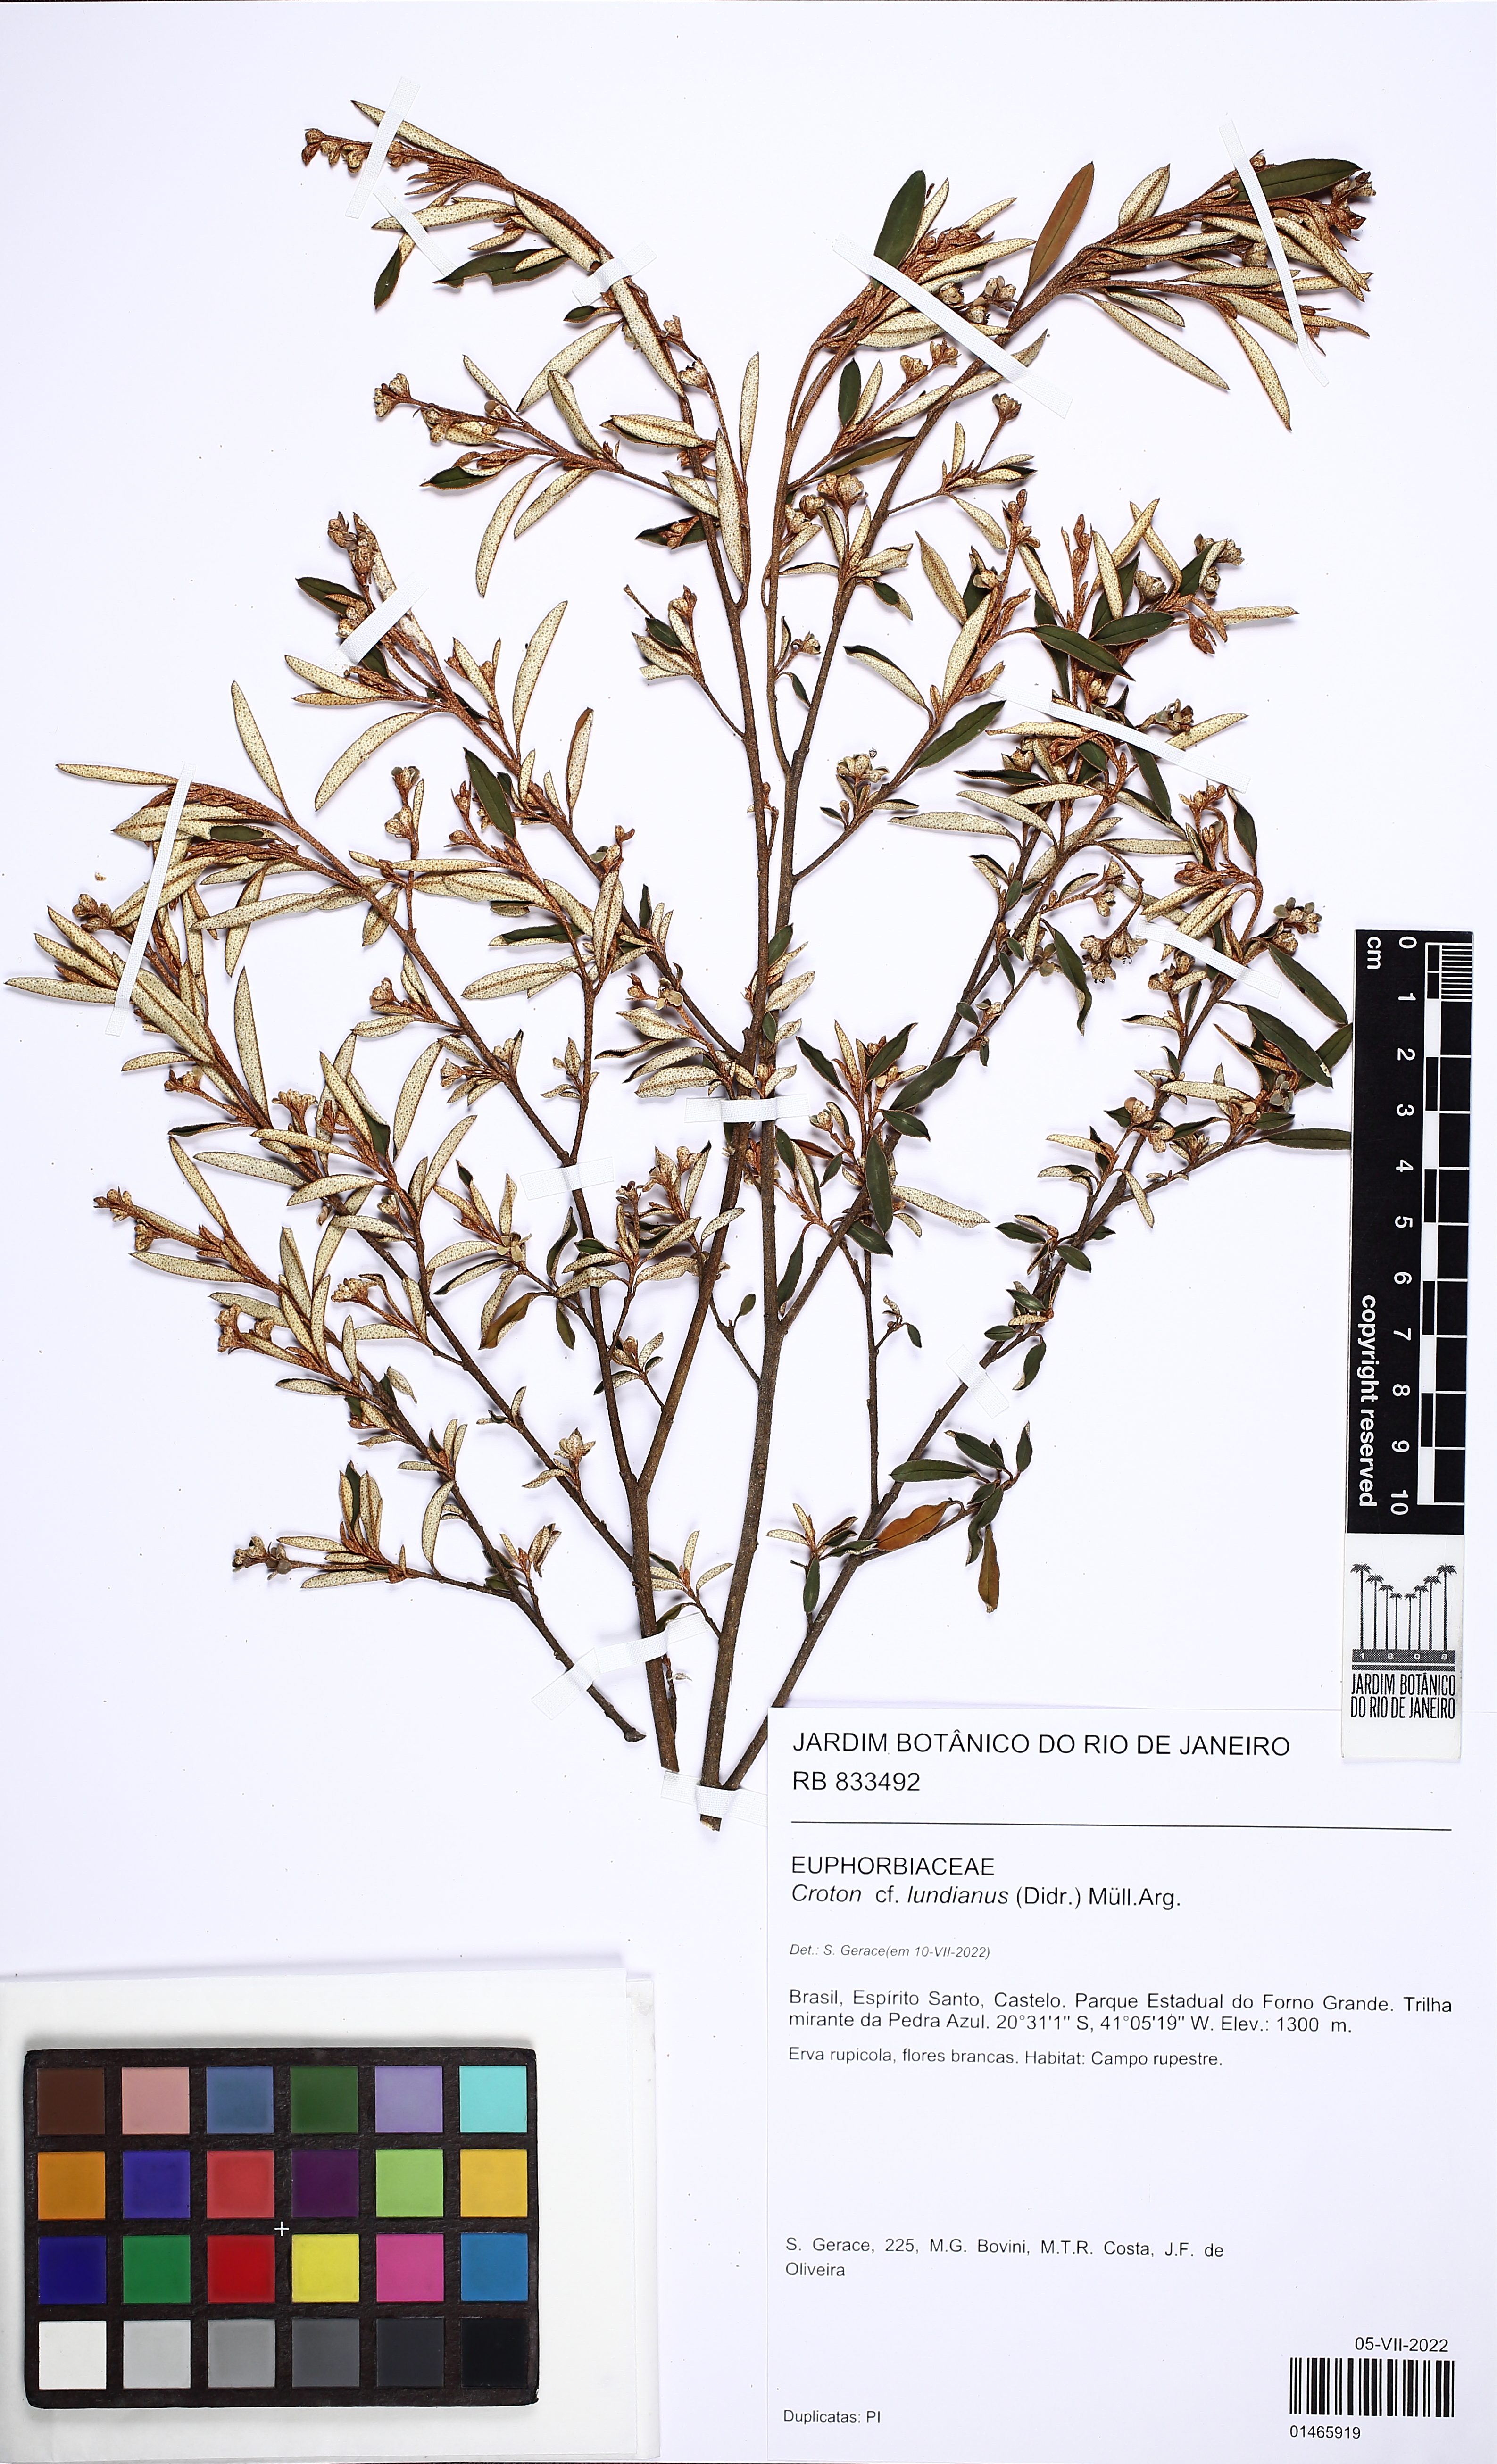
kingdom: Plantae
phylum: Tracheophyta
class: Magnoliopsida
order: Malpighiales
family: Euphorbiaceae
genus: Croton
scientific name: Croton lundianus
